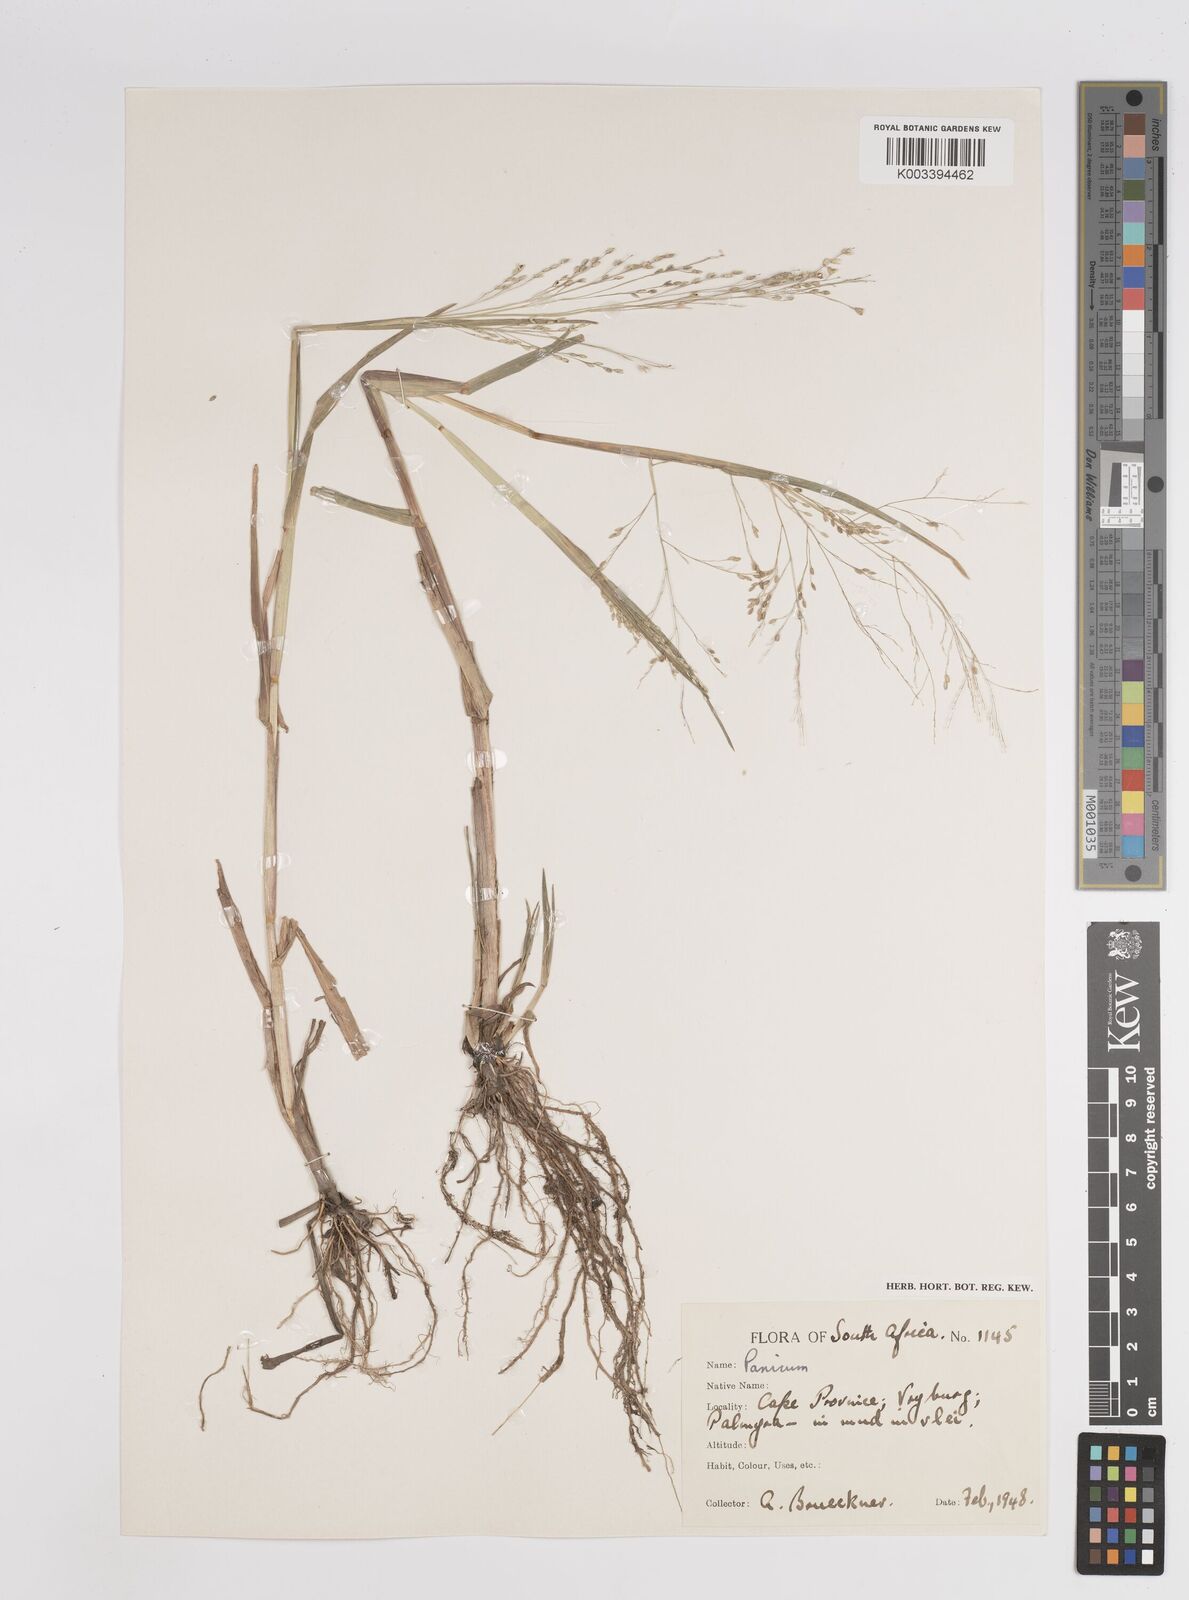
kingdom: Plantae
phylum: Tracheophyta
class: Liliopsida
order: Poales
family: Poaceae
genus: Panicum
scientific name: Panicum
